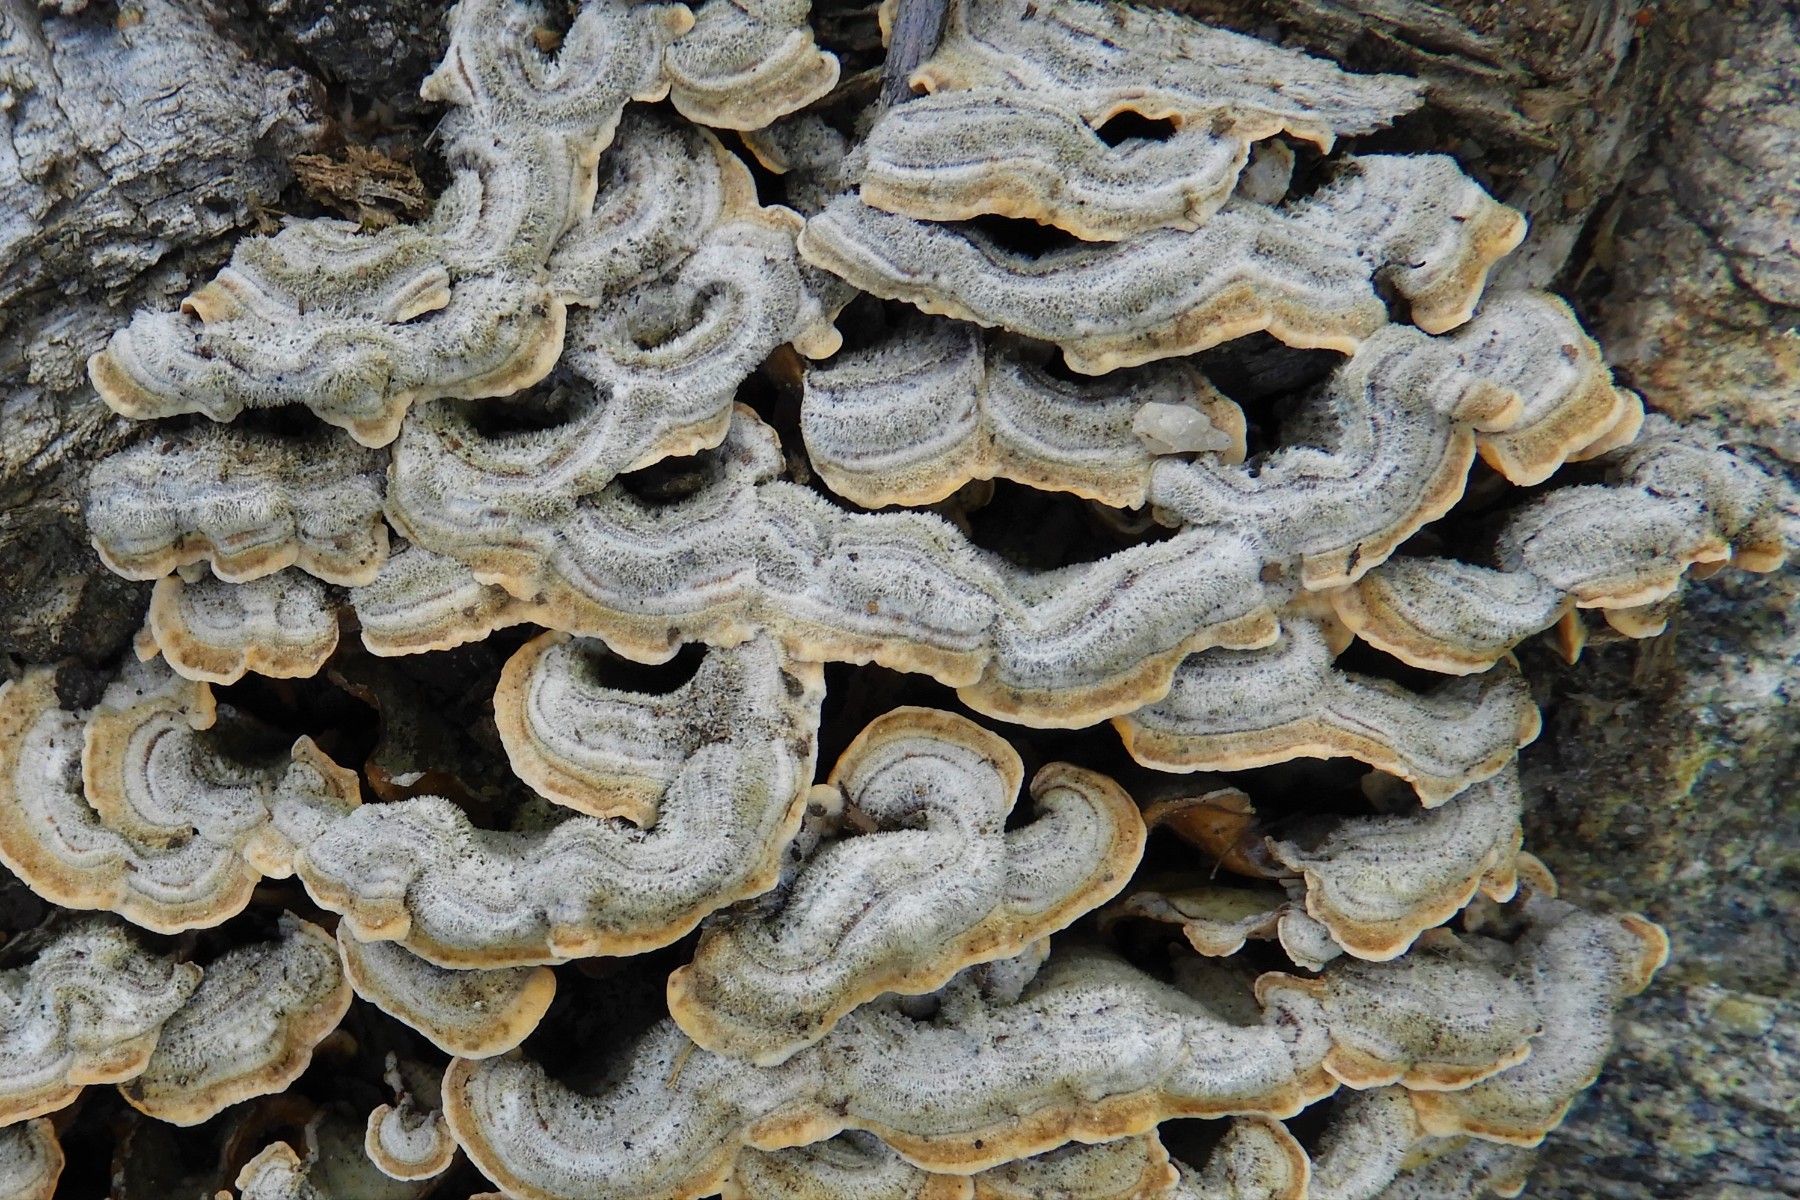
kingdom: Fungi
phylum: Basidiomycota
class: Agaricomycetes
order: Russulales
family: Stereaceae
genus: Stereum
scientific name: Stereum hirsutum
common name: håret lædersvamp
